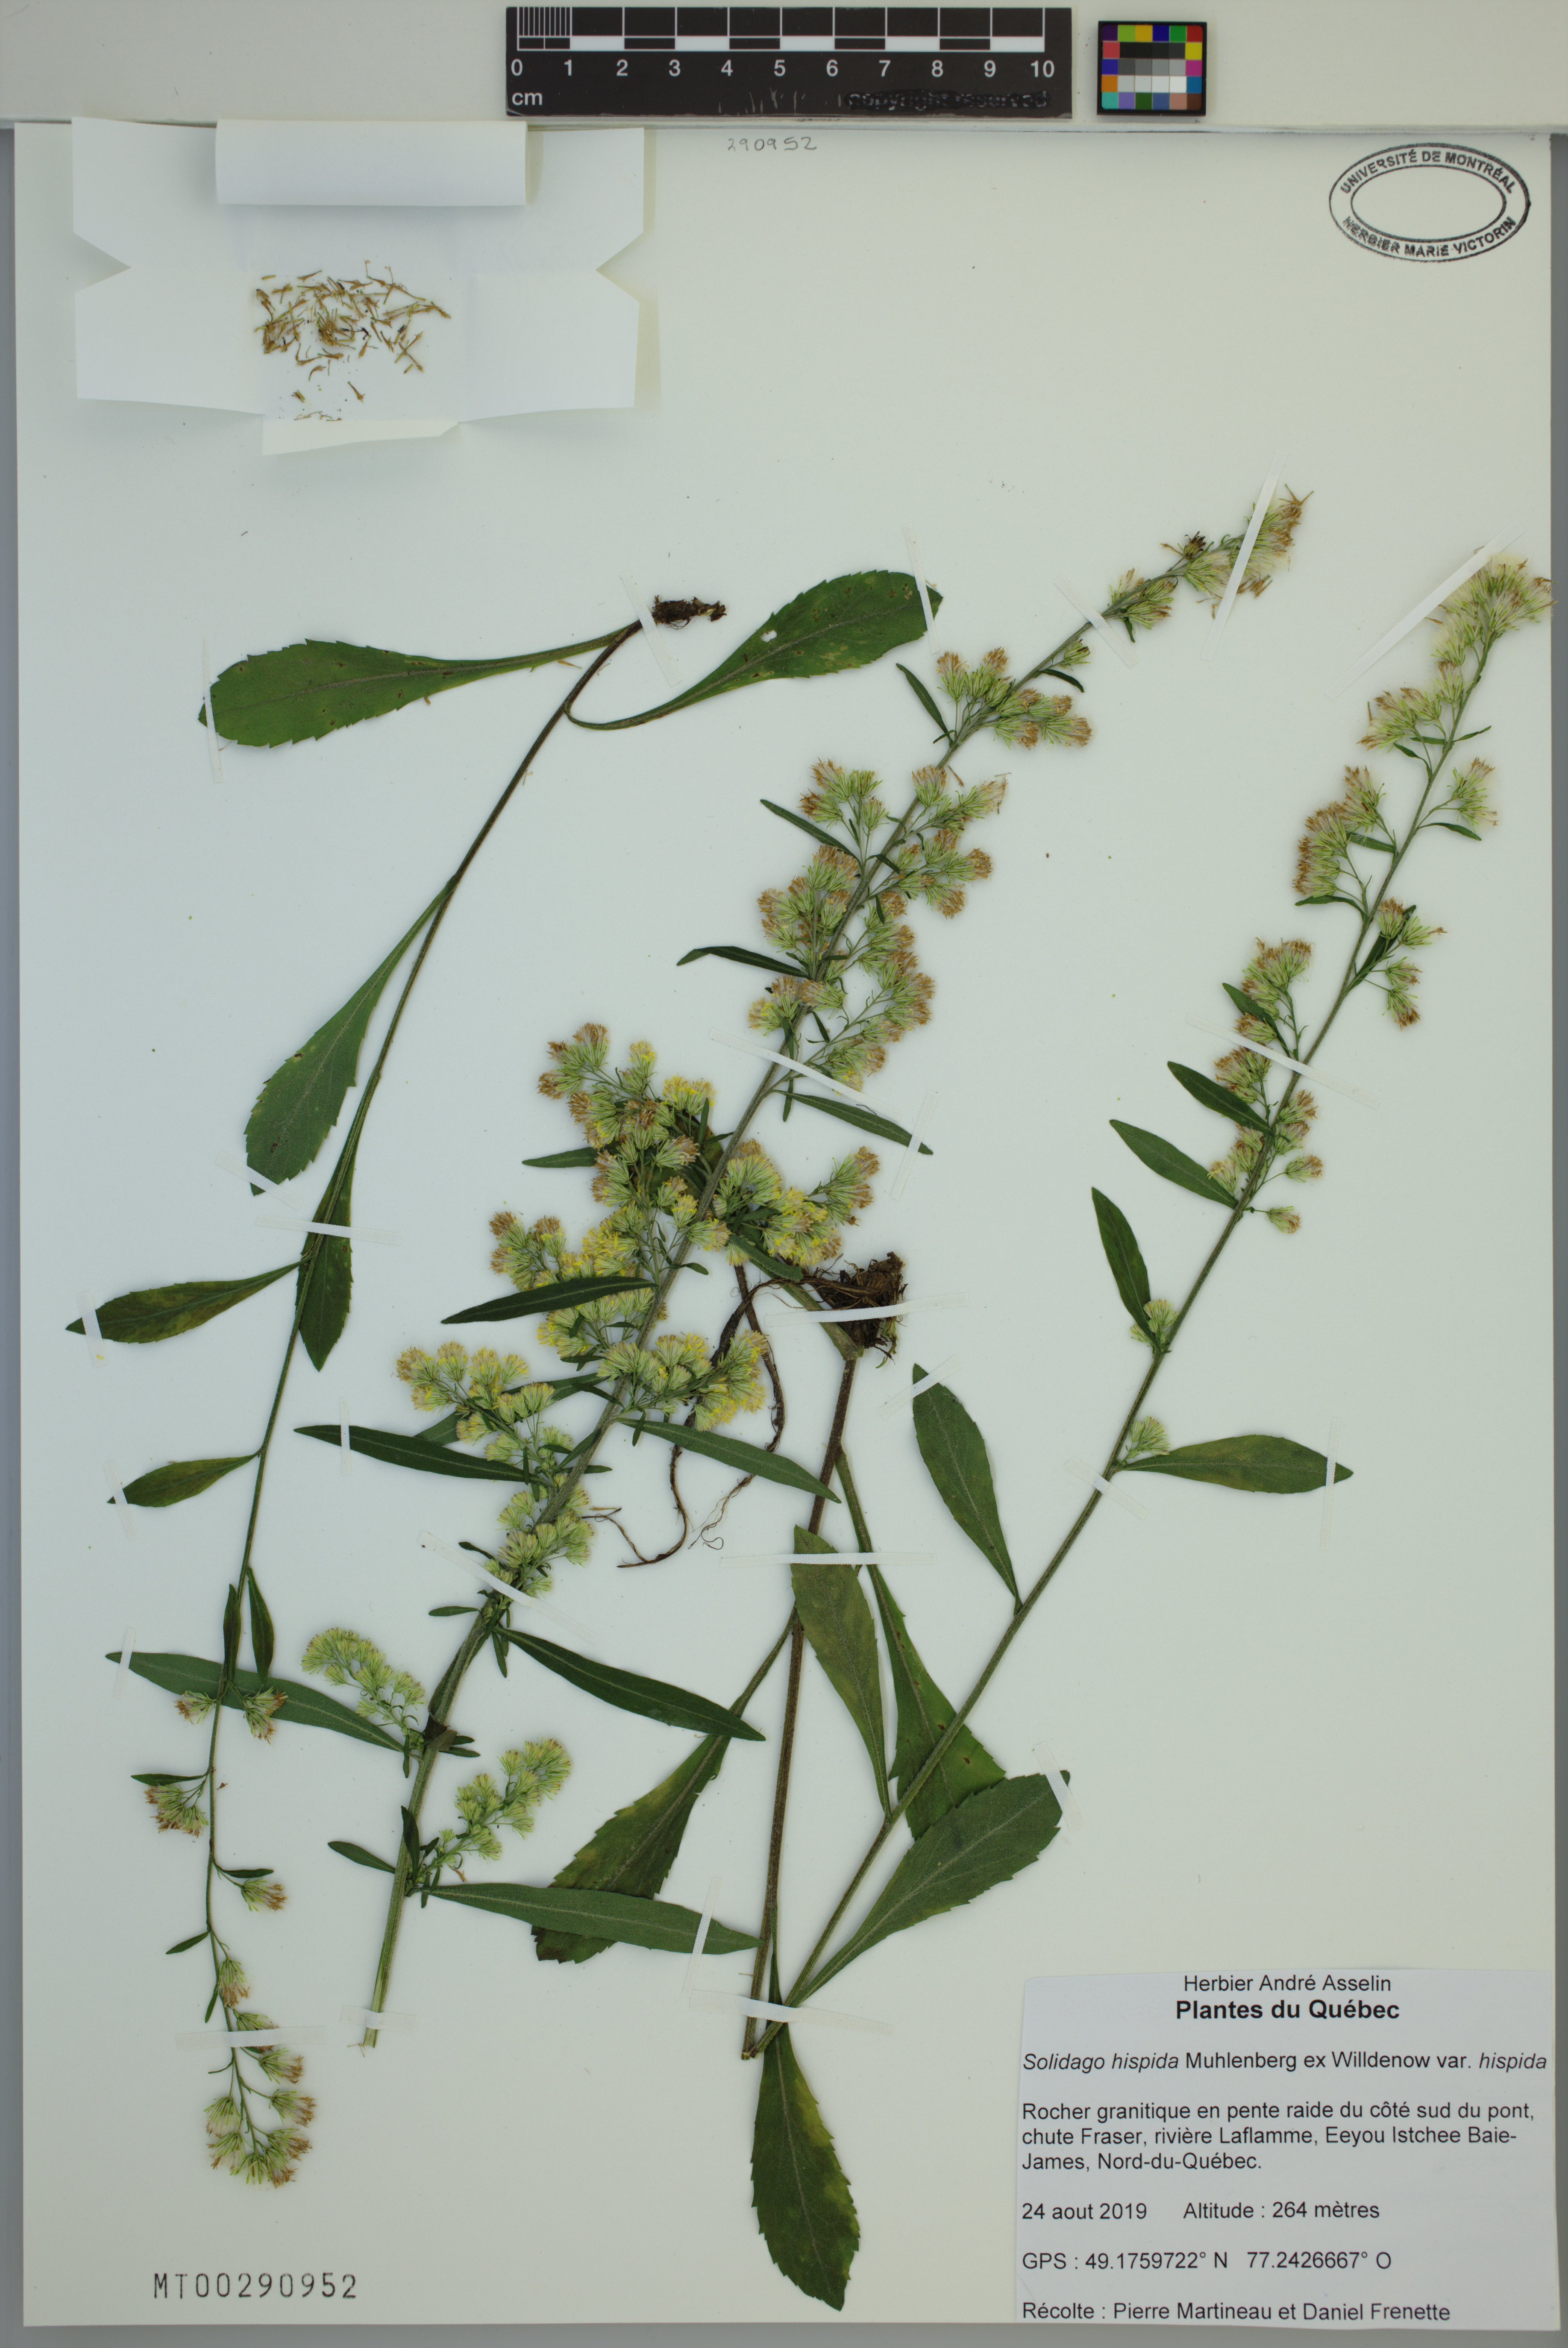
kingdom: Plantae
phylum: Tracheophyta
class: Magnoliopsida
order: Asterales
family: Asteraceae
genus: Solidago
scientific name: Solidago hispida
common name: Hairy goldenrod
